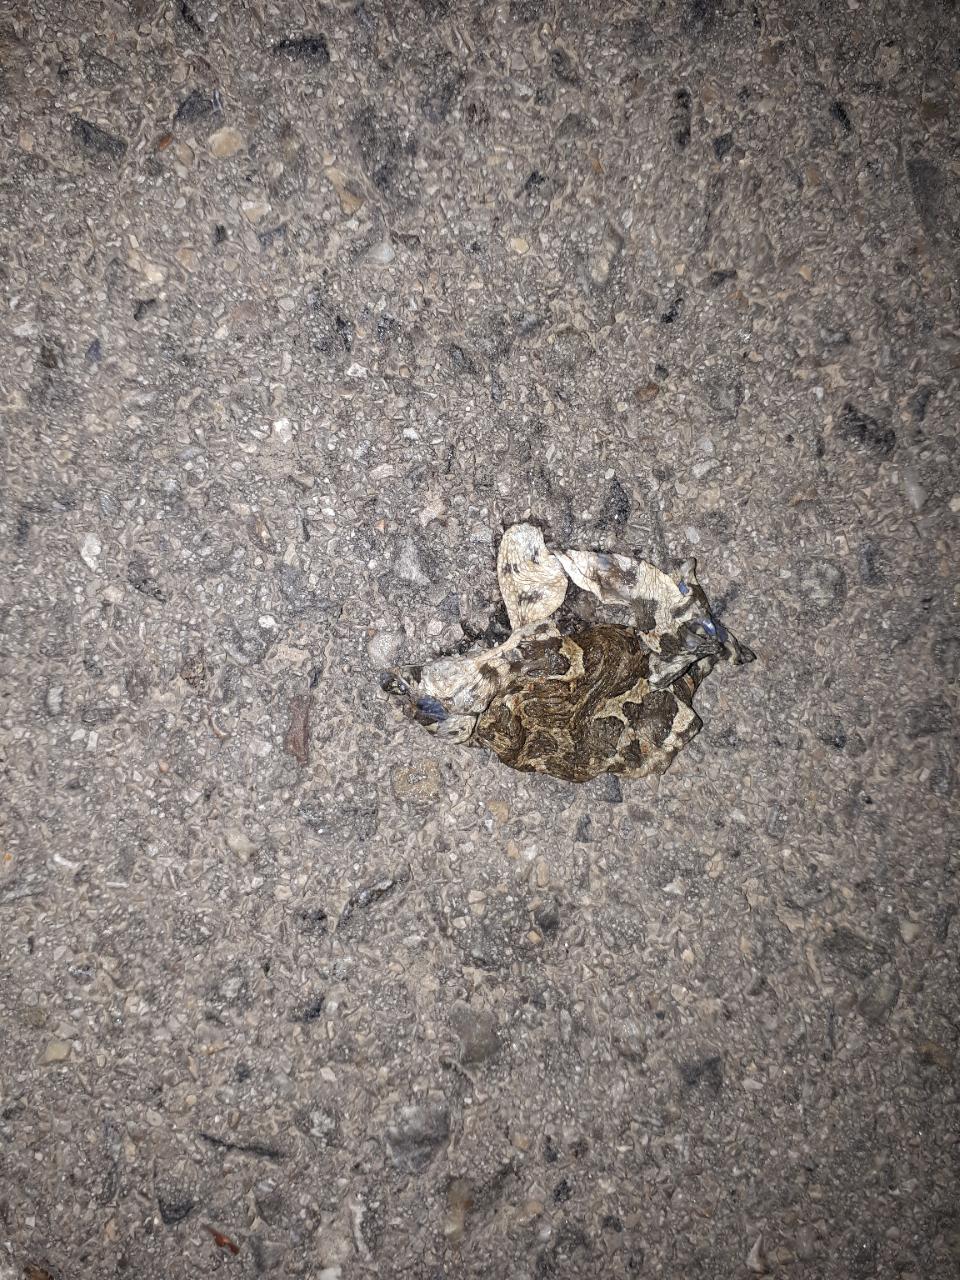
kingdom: Animalia
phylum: Chordata
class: Amphibia
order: Anura
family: Bufonidae
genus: Bufotes
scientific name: Bufotes viridis
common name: European green toad
